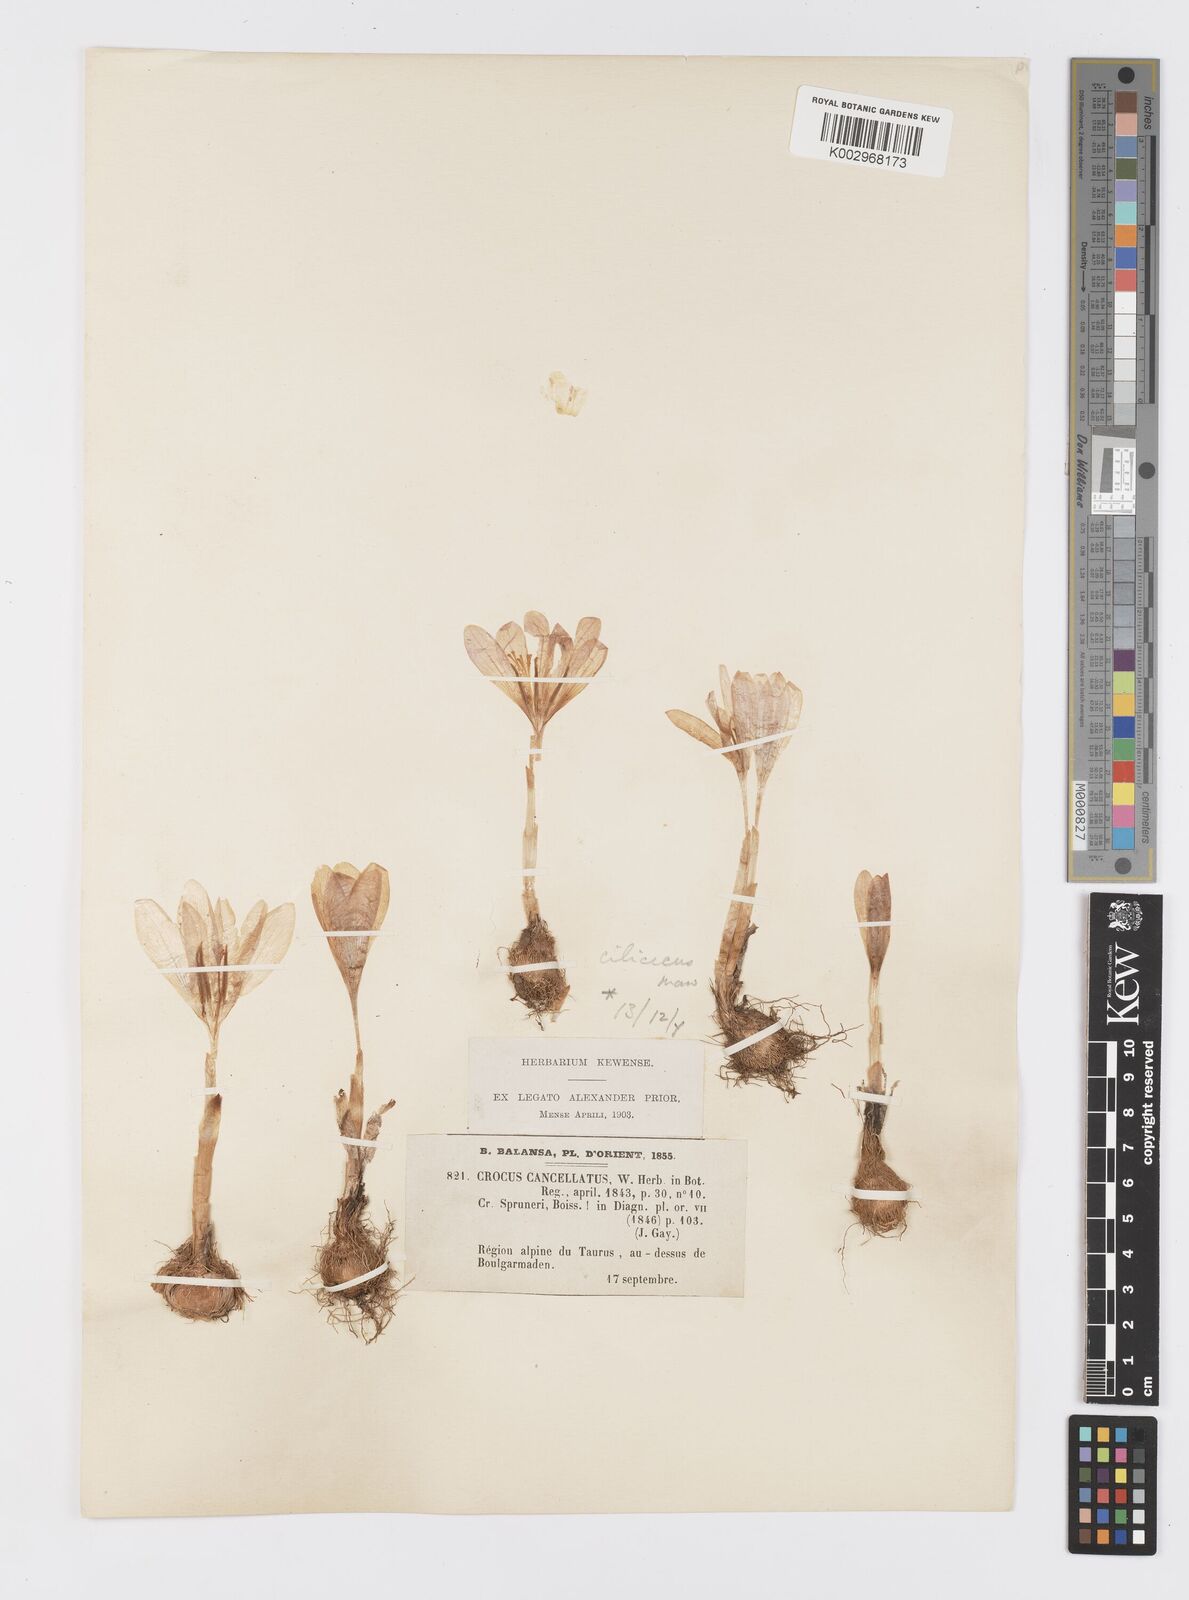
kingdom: Plantae
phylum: Tracheophyta
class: Liliopsida
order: Asparagales
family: Iridaceae
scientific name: Iridaceae
